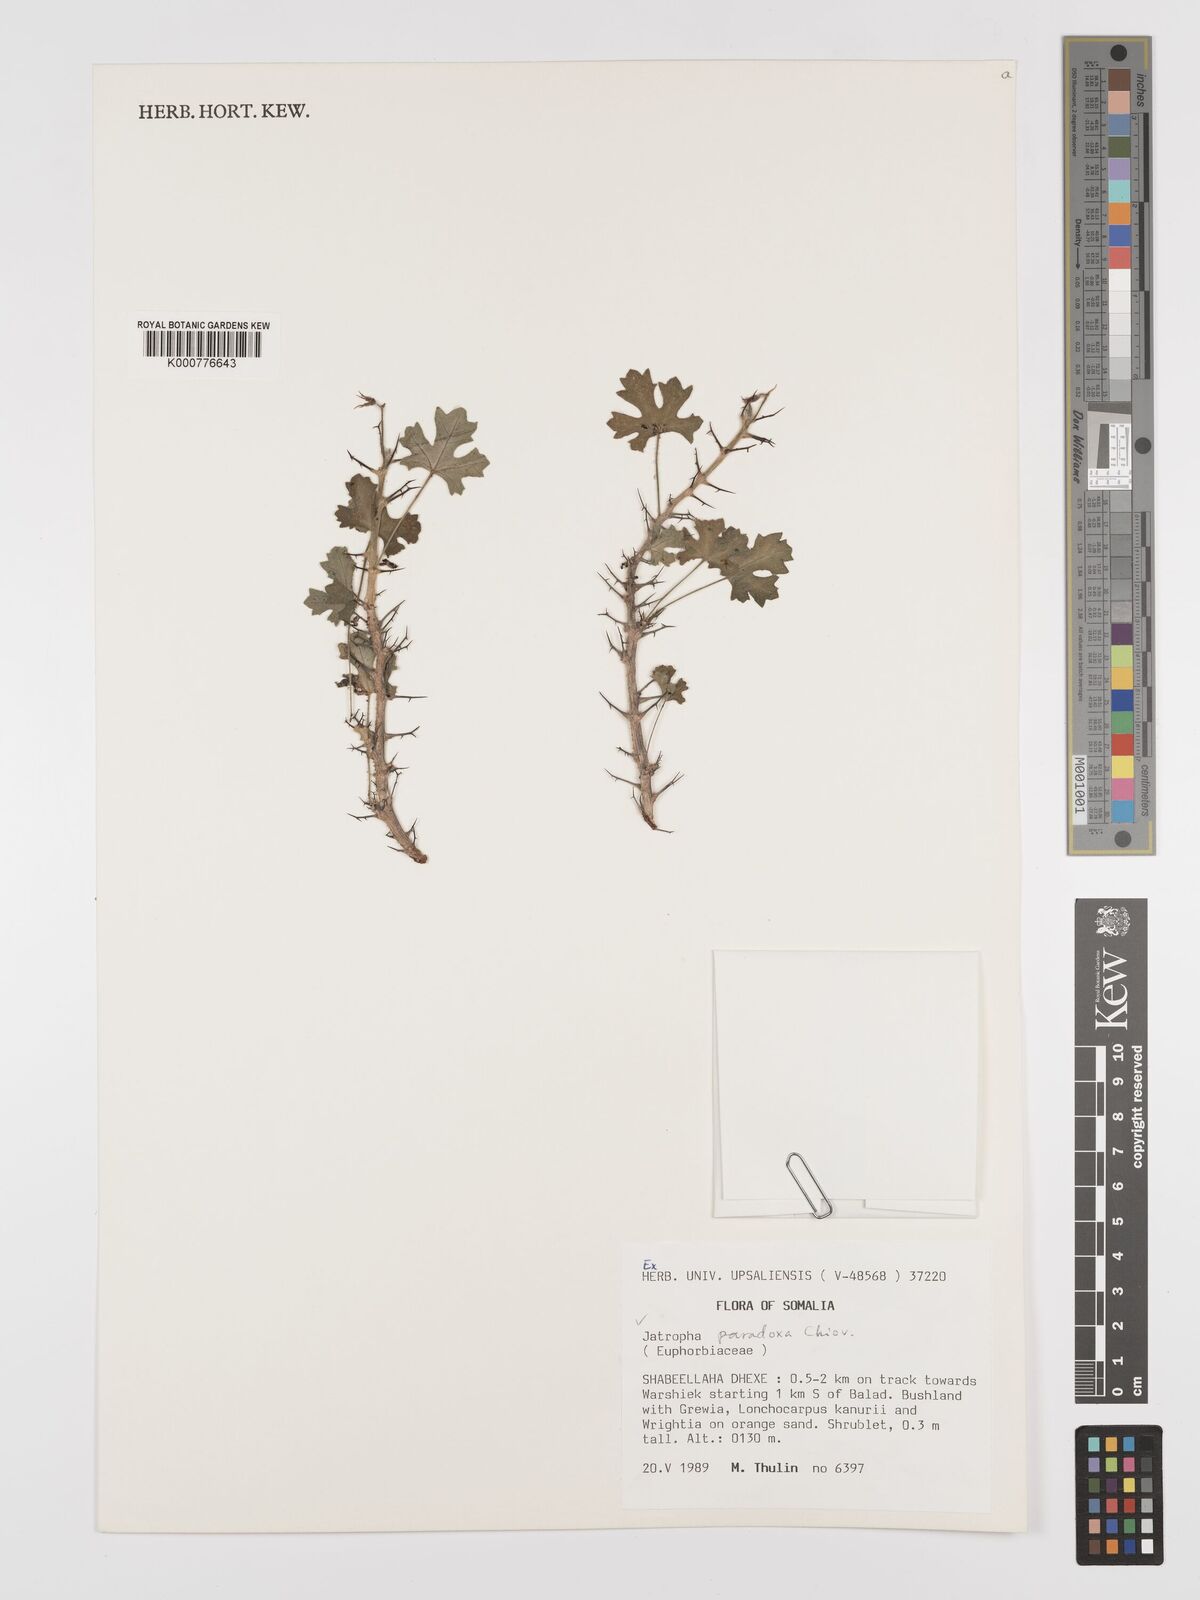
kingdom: Plantae
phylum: Tracheophyta
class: Magnoliopsida
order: Malpighiales
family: Euphorbiaceae
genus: Jatropha
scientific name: Jatropha paradoxa
